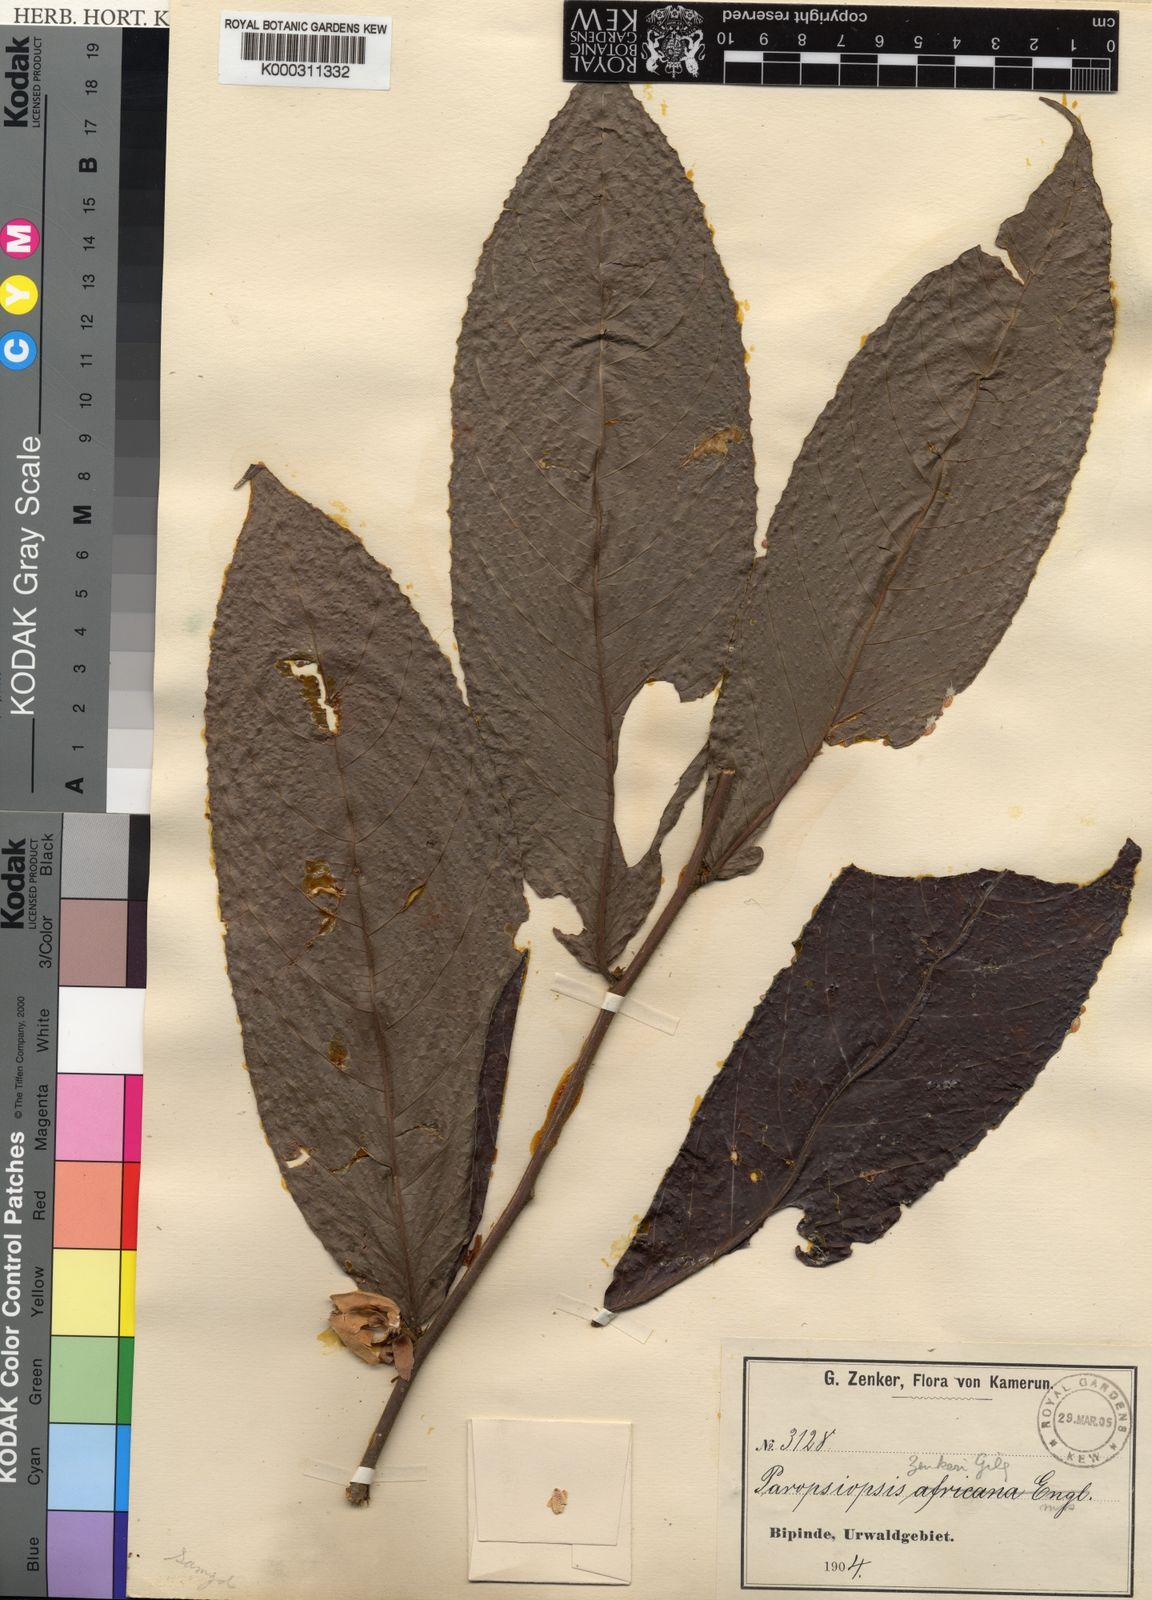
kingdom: Plantae
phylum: Tracheophyta
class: Magnoliopsida
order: Malpighiales
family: Passifloraceae
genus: Paropsiopsis
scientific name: Paropsiopsis decandra
